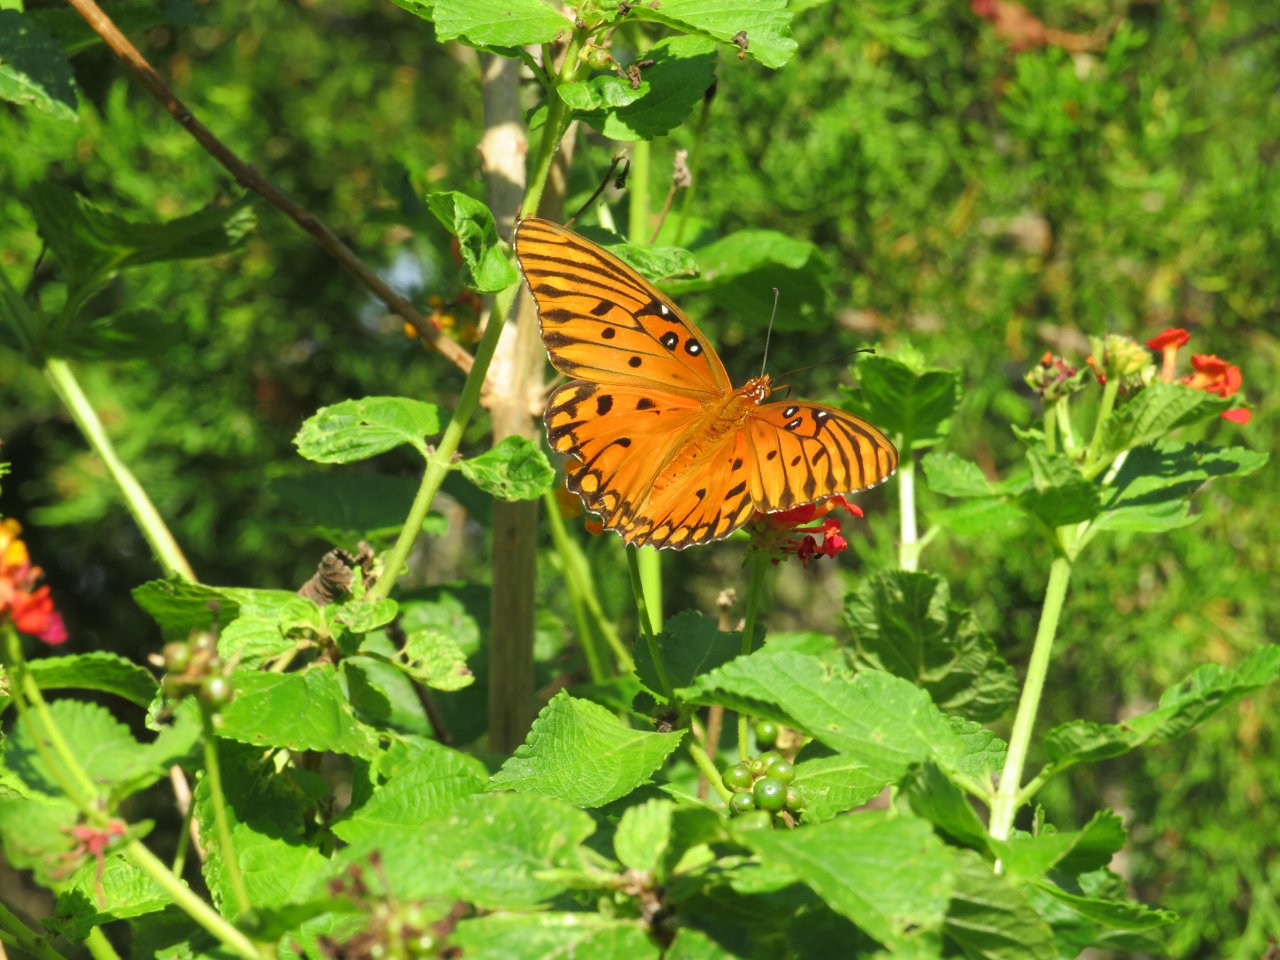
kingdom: Animalia
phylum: Arthropoda
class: Insecta
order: Lepidoptera
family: Nymphalidae
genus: Dione
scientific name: Dione vanillae
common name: Gulf Fritillary
